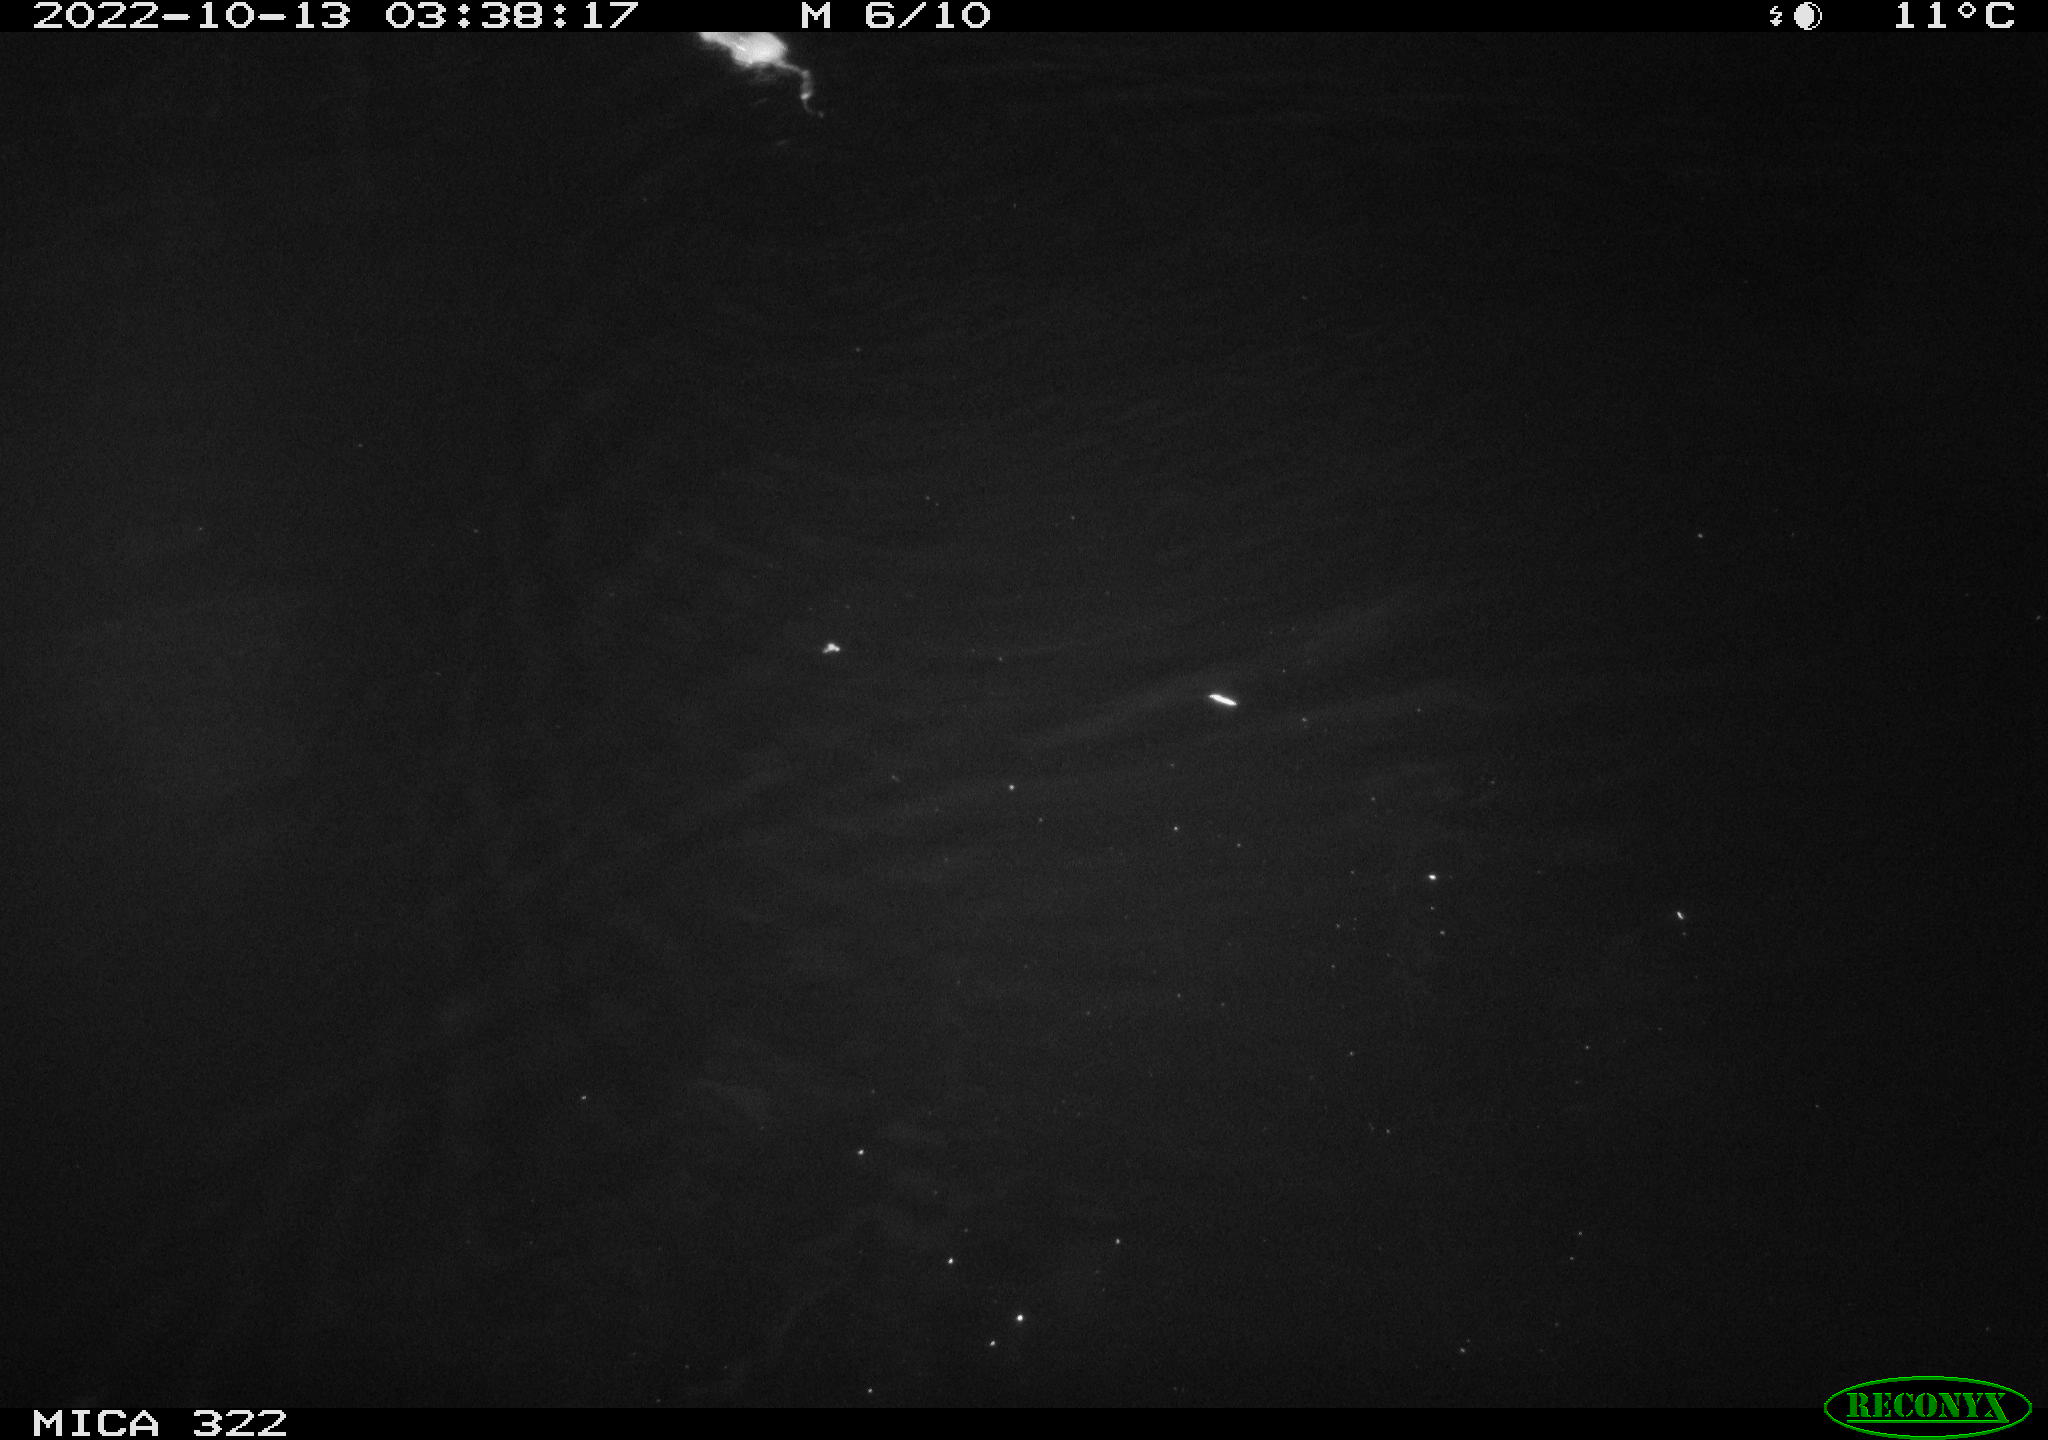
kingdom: Animalia
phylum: Chordata
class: Mammalia
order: Rodentia
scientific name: Rodentia
